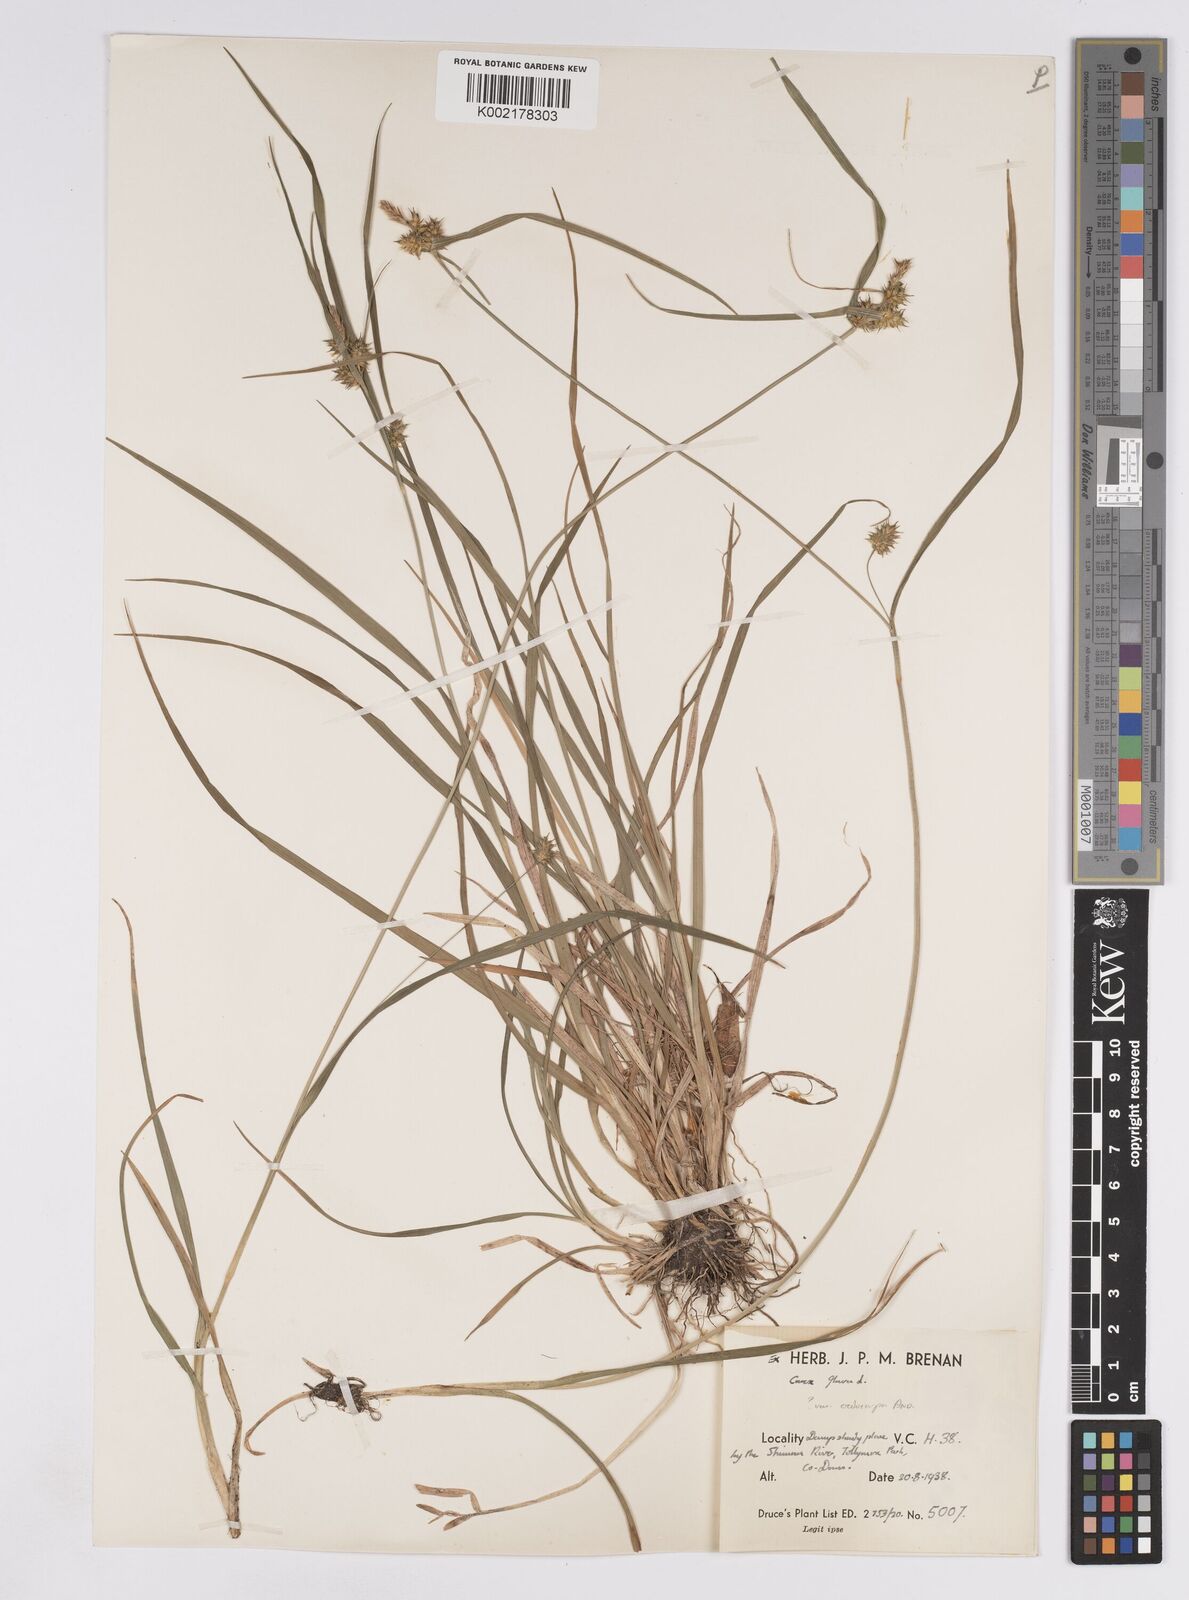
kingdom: Plantae
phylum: Tracheophyta
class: Liliopsida
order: Poales
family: Cyperaceae
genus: Carex
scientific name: Carex demissa
